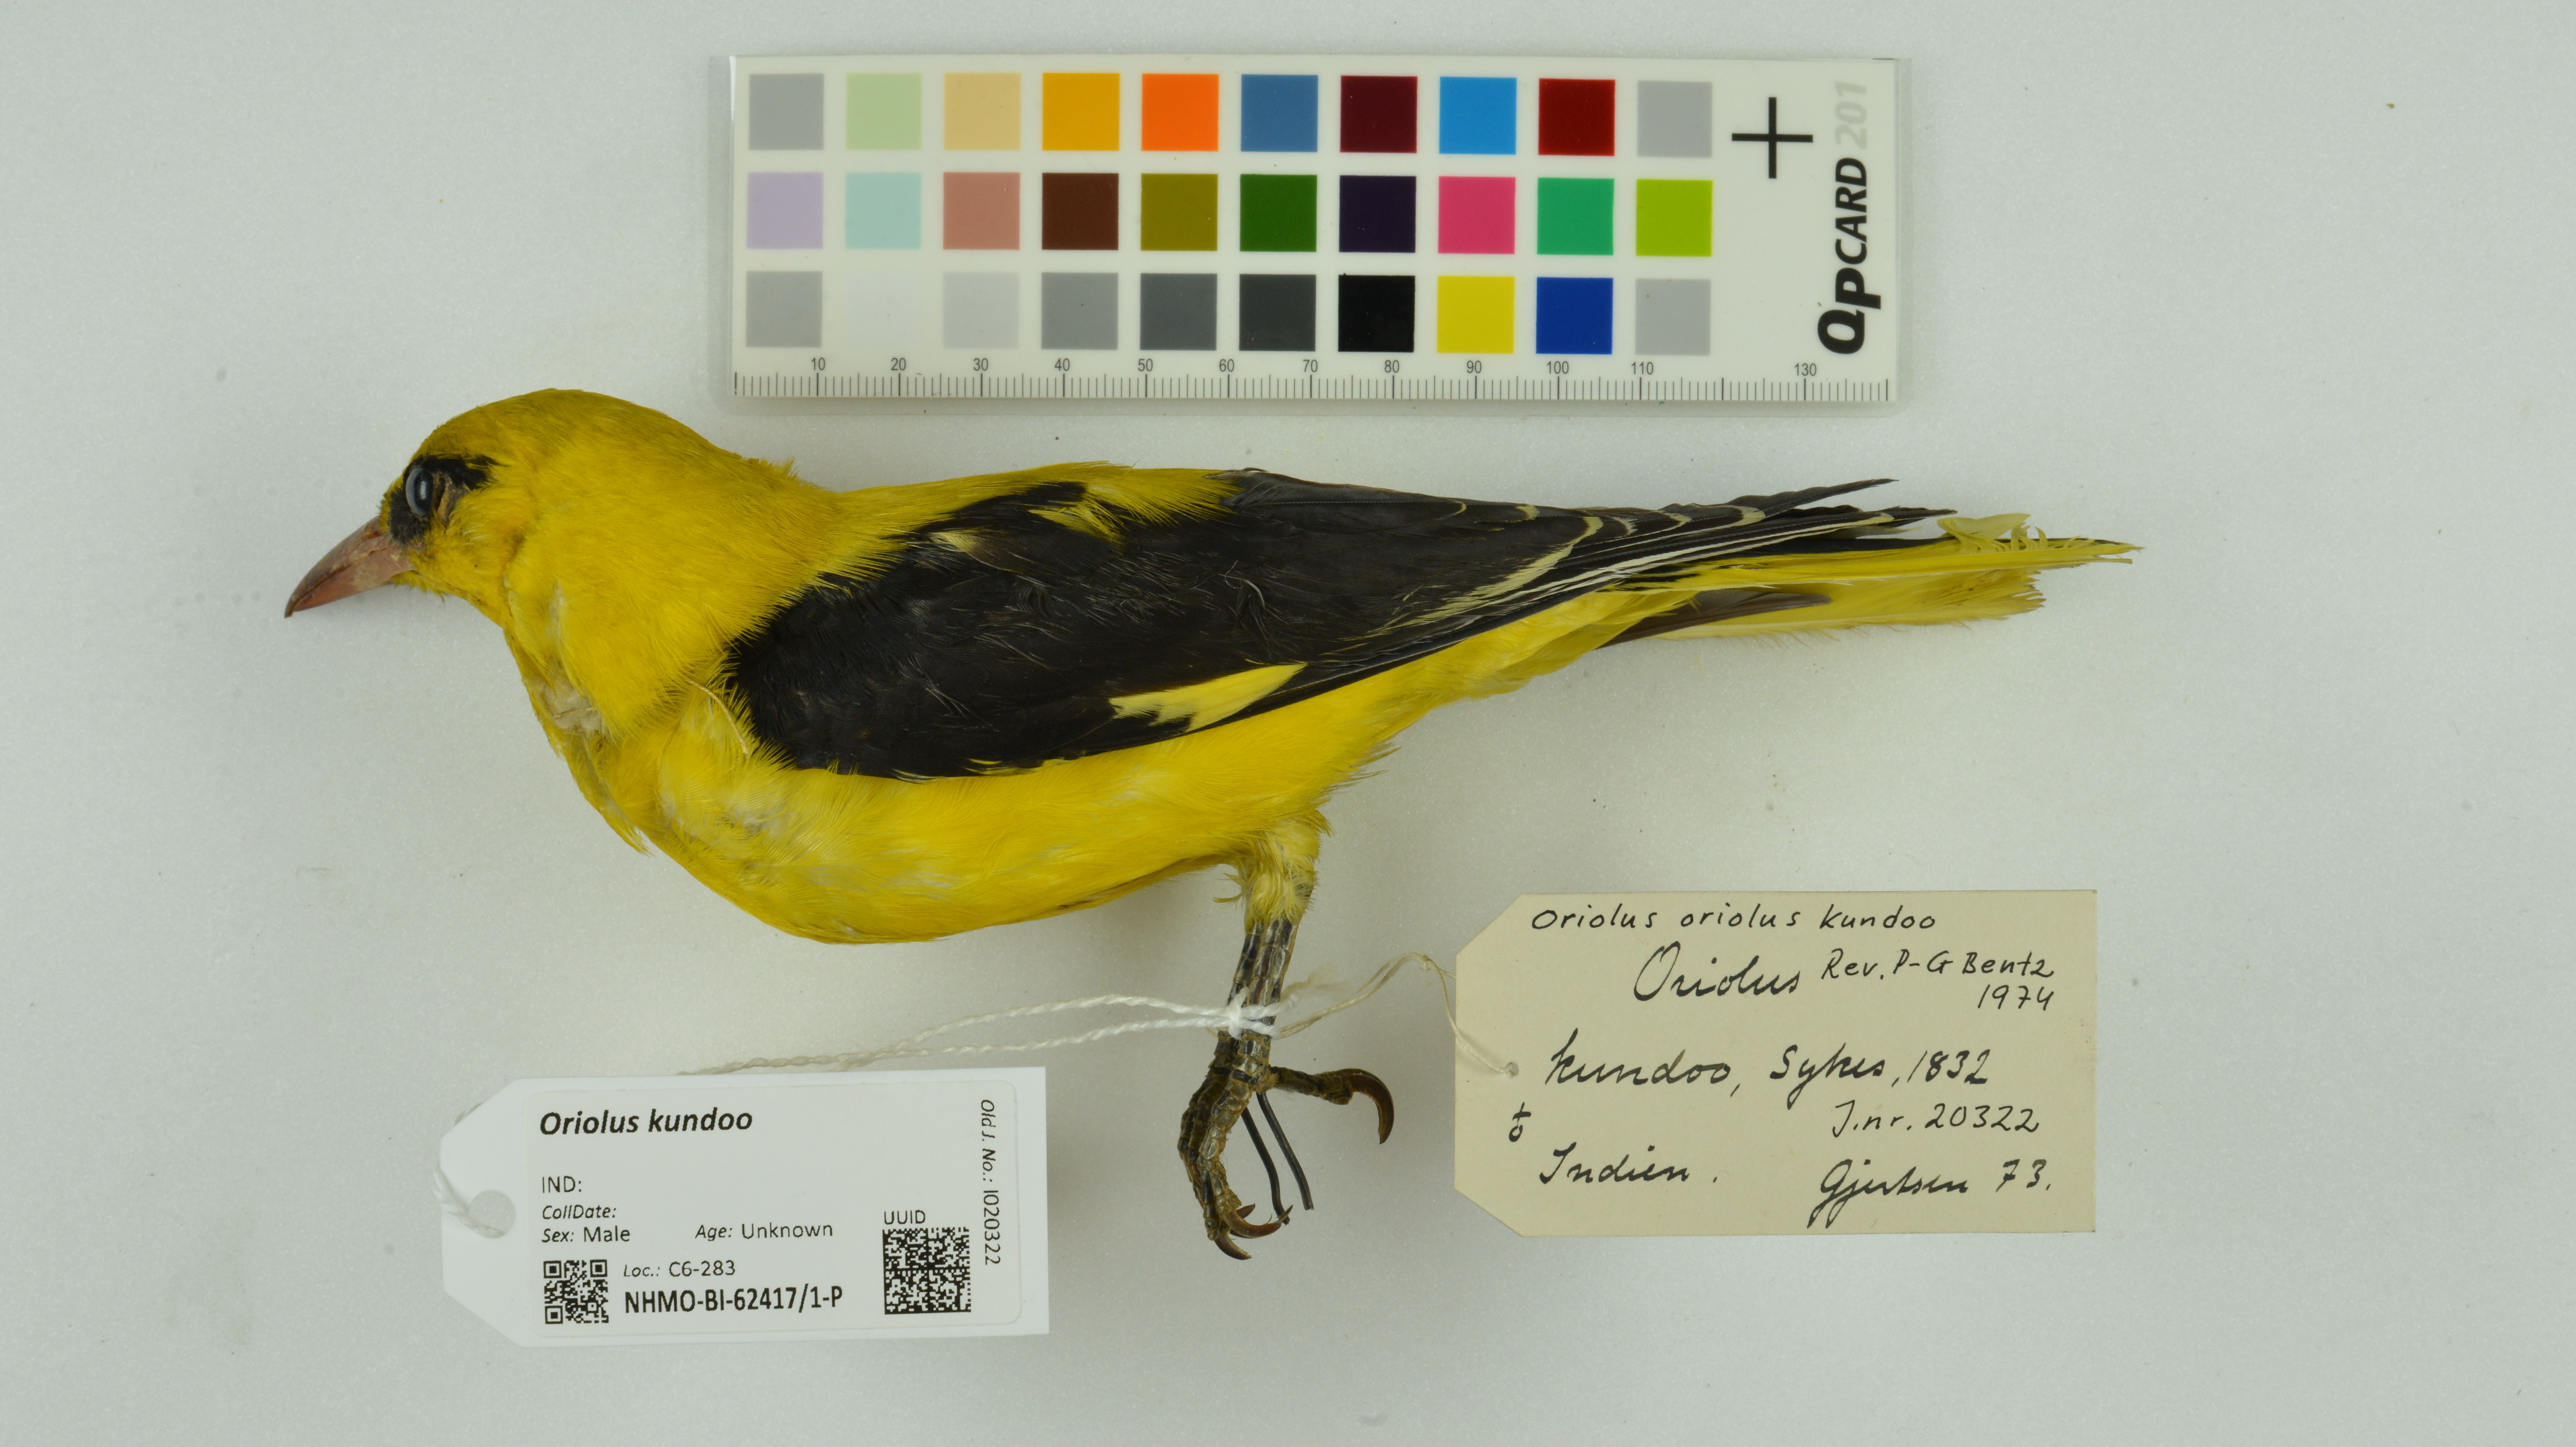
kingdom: Animalia
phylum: Chordata
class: Aves
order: Passeriformes
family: Oriolidae
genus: Oriolus
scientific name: Oriolus kundoo
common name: Indian golden oriole
